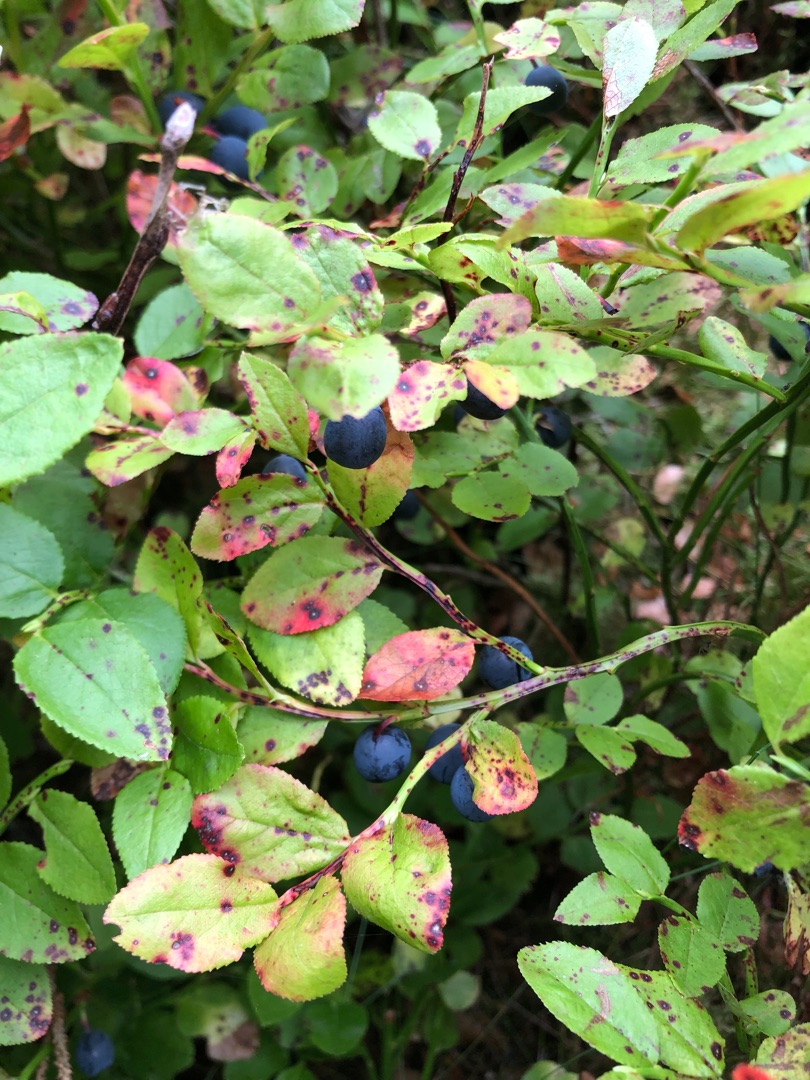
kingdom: Plantae
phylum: Tracheophyta
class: Magnoliopsida
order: Ericales
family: Ericaceae
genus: Vaccinium
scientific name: Vaccinium myrtillus
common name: Blåbær
